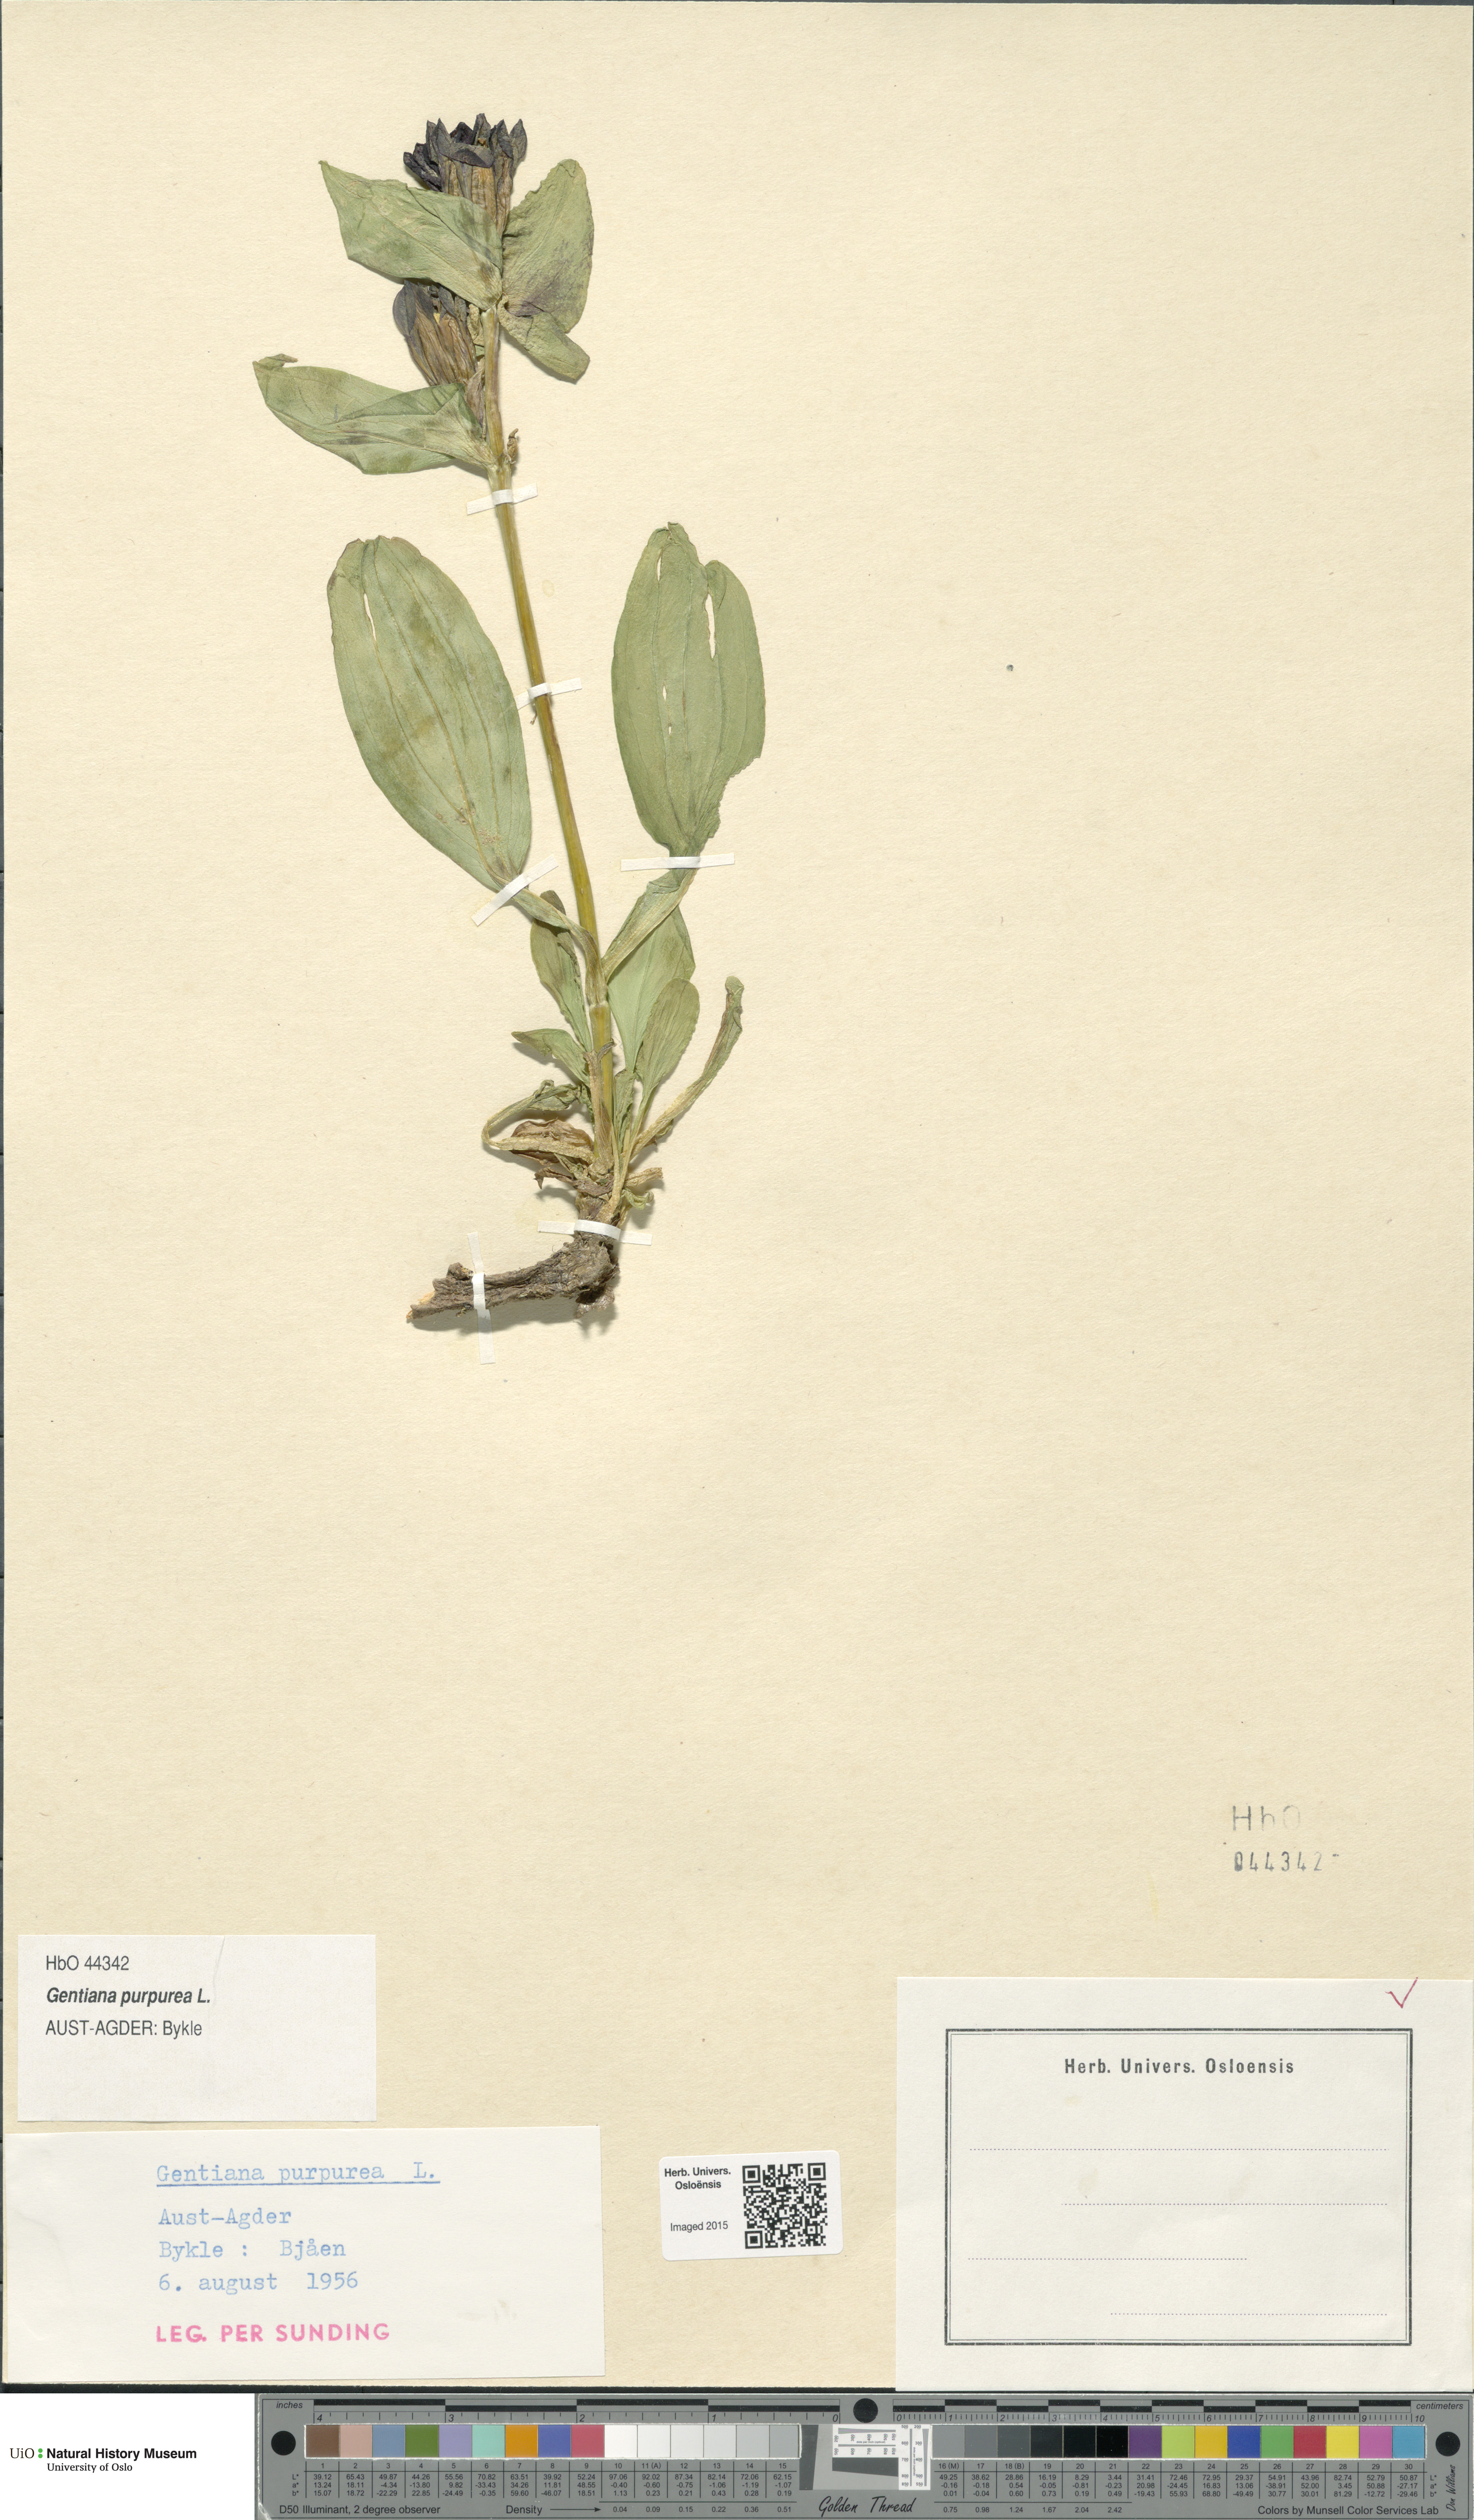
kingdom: Plantae
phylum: Tracheophyta
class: Magnoliopsida
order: Gentianales
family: Gentianaceae
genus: Gentiana
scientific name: Gentiana purpurea
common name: Purple gentian
